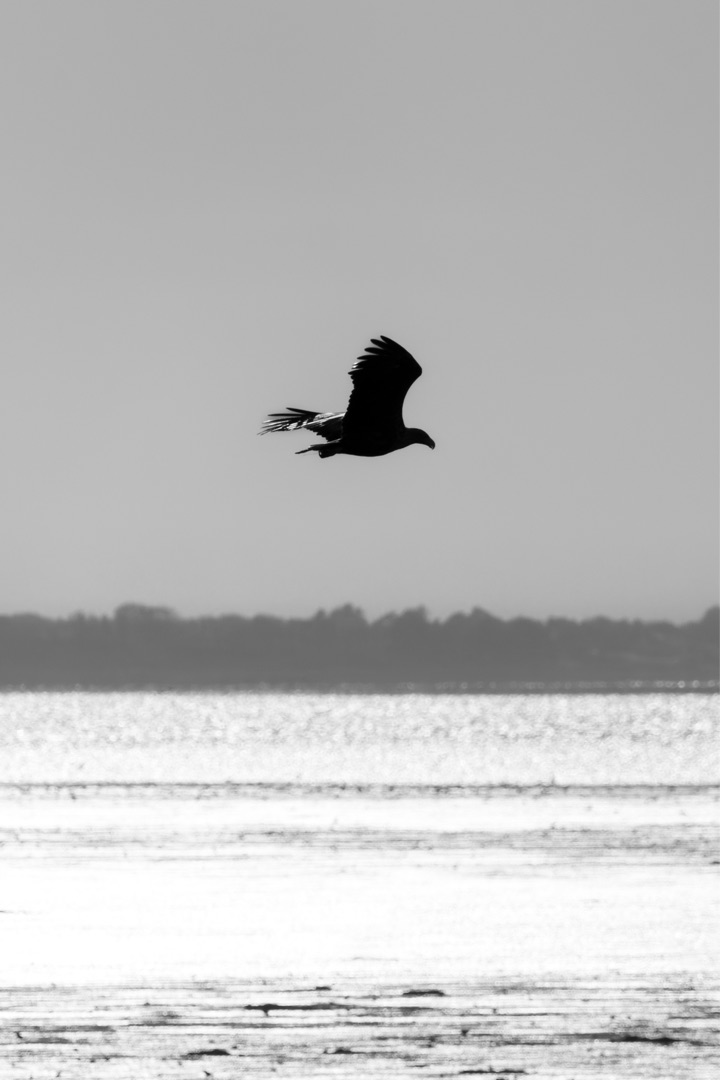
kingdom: Animalia
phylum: Chordata
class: Aves
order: Accipitriformes
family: Accipitridae
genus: Haliaeetus
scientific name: Haliaeetus albicilla
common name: Havørn
